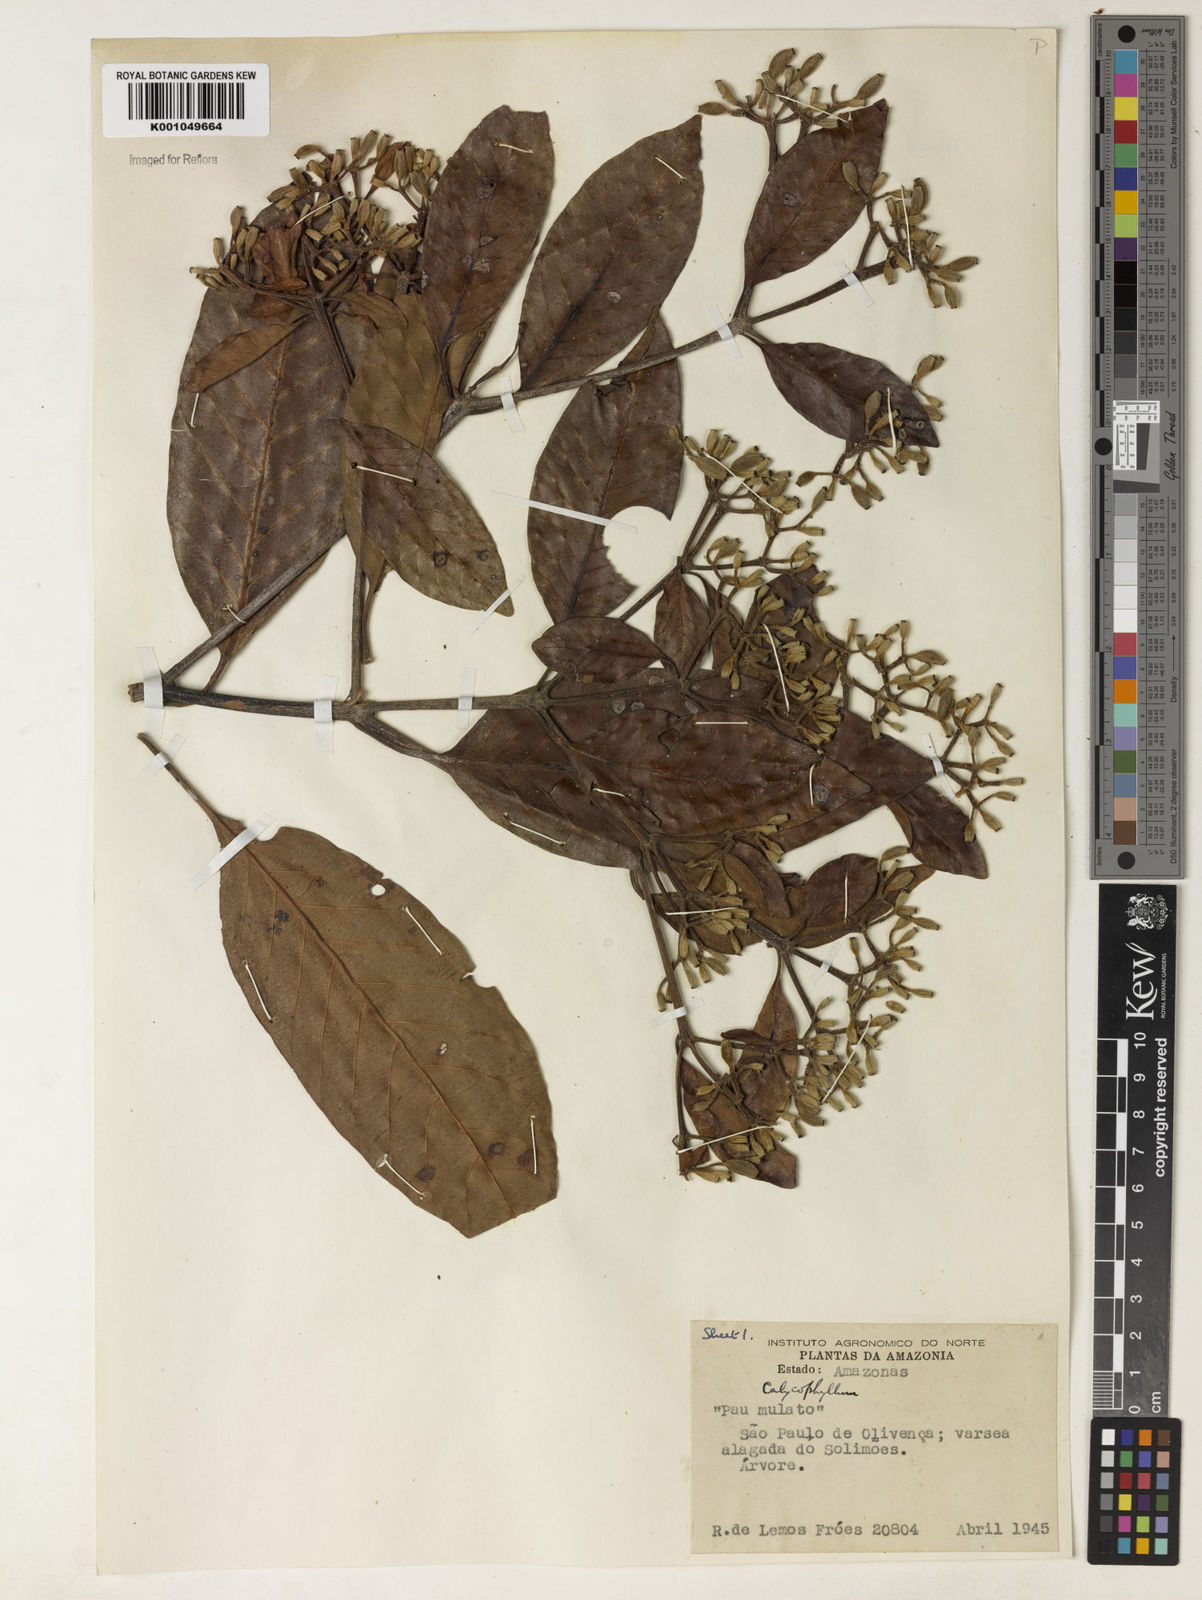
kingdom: Plantae
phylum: Tracheophyta
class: Magnoliopsida
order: Gentianales
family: Rubiaceae
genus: Calycophyllum
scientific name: Calycophyllum
